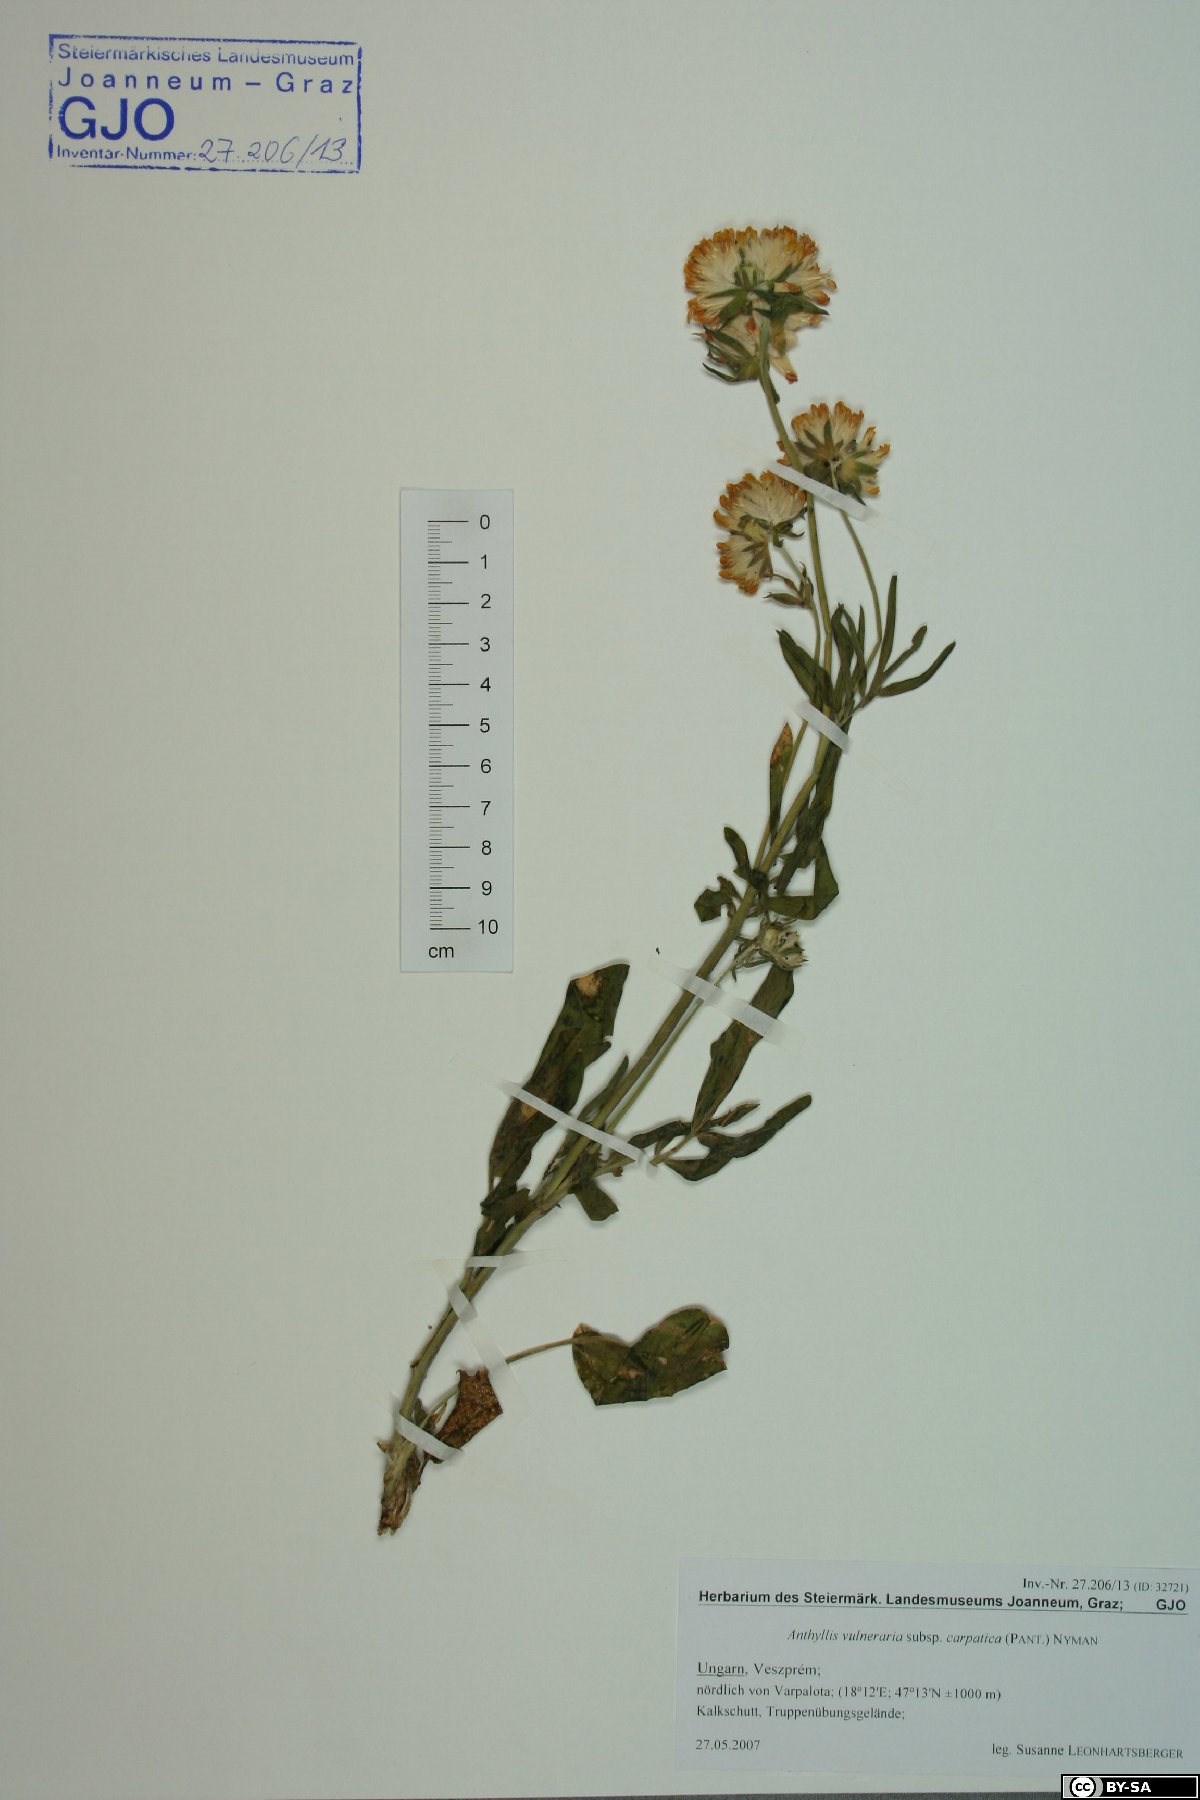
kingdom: Plantae
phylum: Tracheophyta
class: Magnoliopsida
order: Fabales
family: Fabaceae
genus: Anthyllis
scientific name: Anthyllis vulneraria
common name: Kidney vetch
